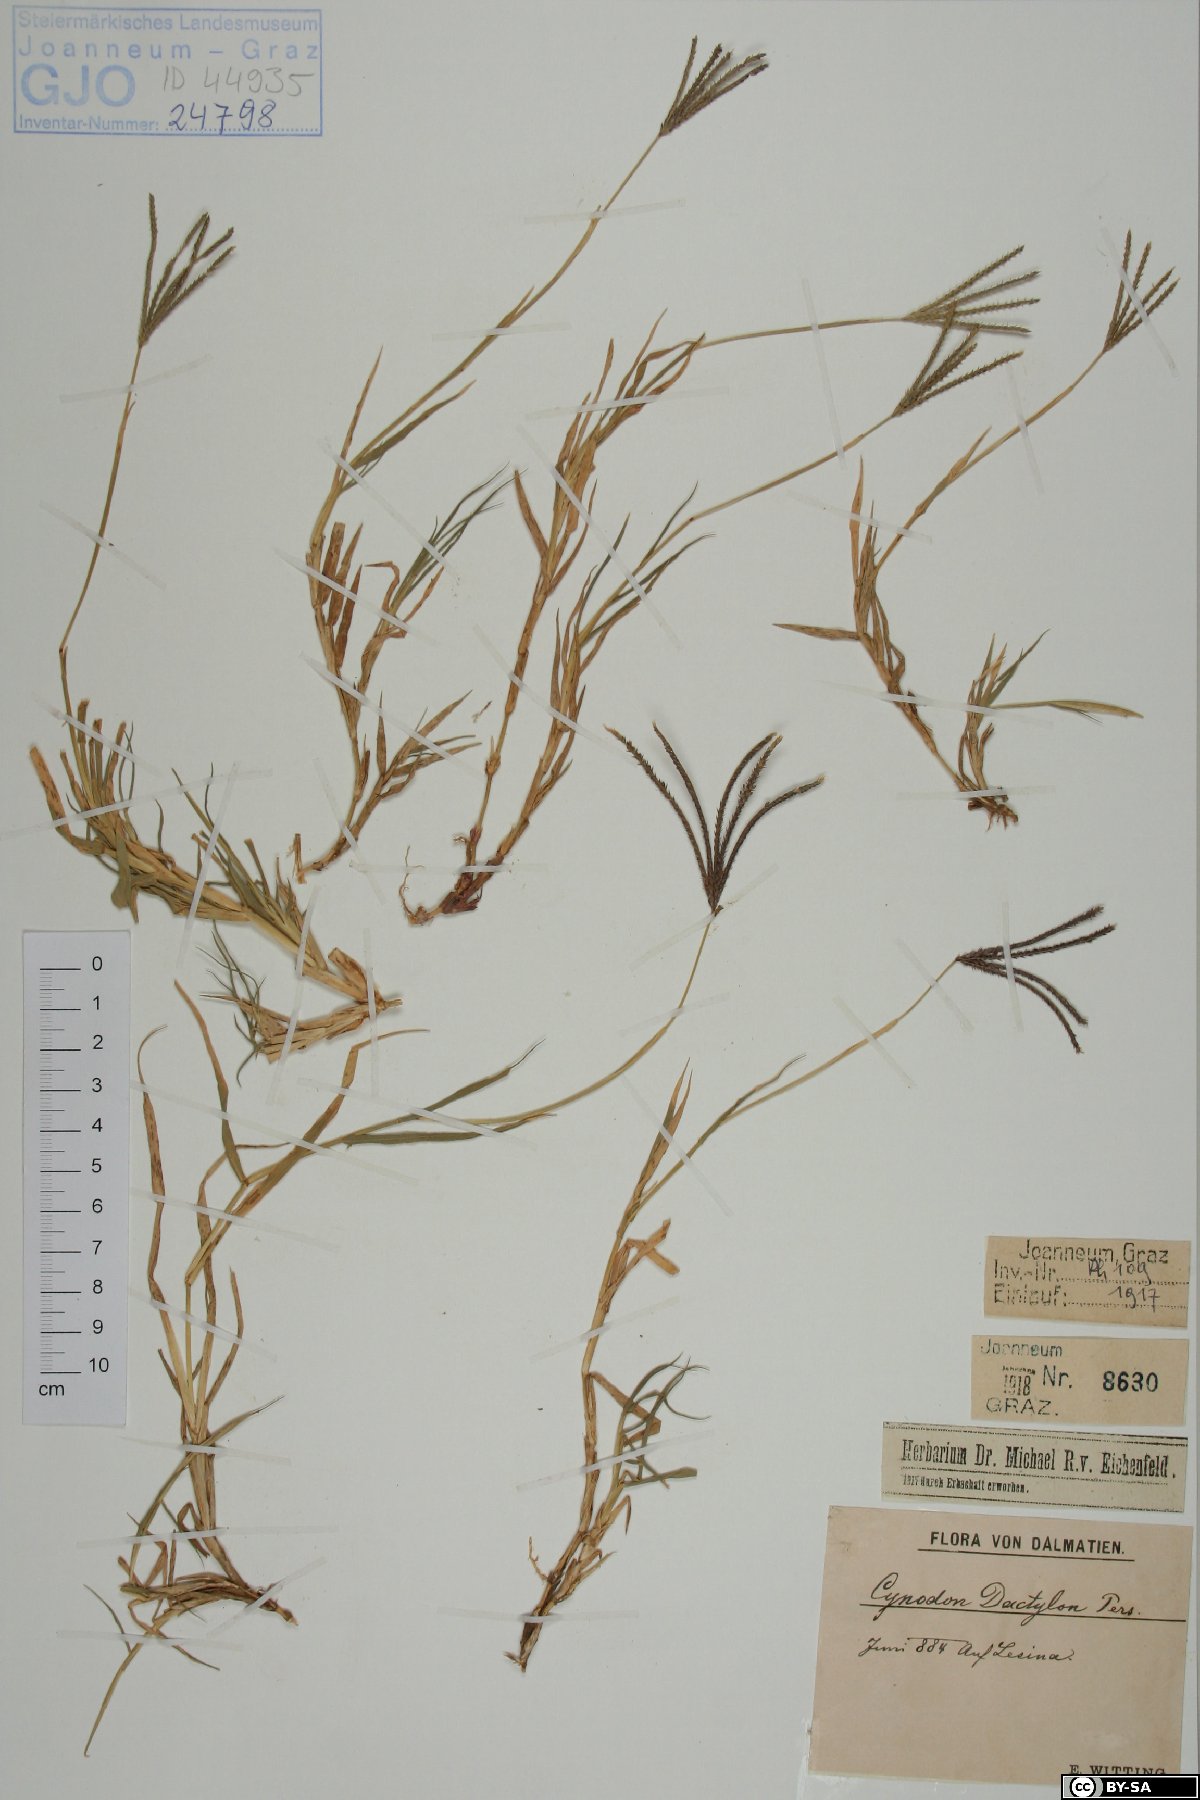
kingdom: Plantae
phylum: Tracheophyta
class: Liliopsida
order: Poales
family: Poaceae
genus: Cynodon
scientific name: Cynodon dactylon
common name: Bermuda grass
